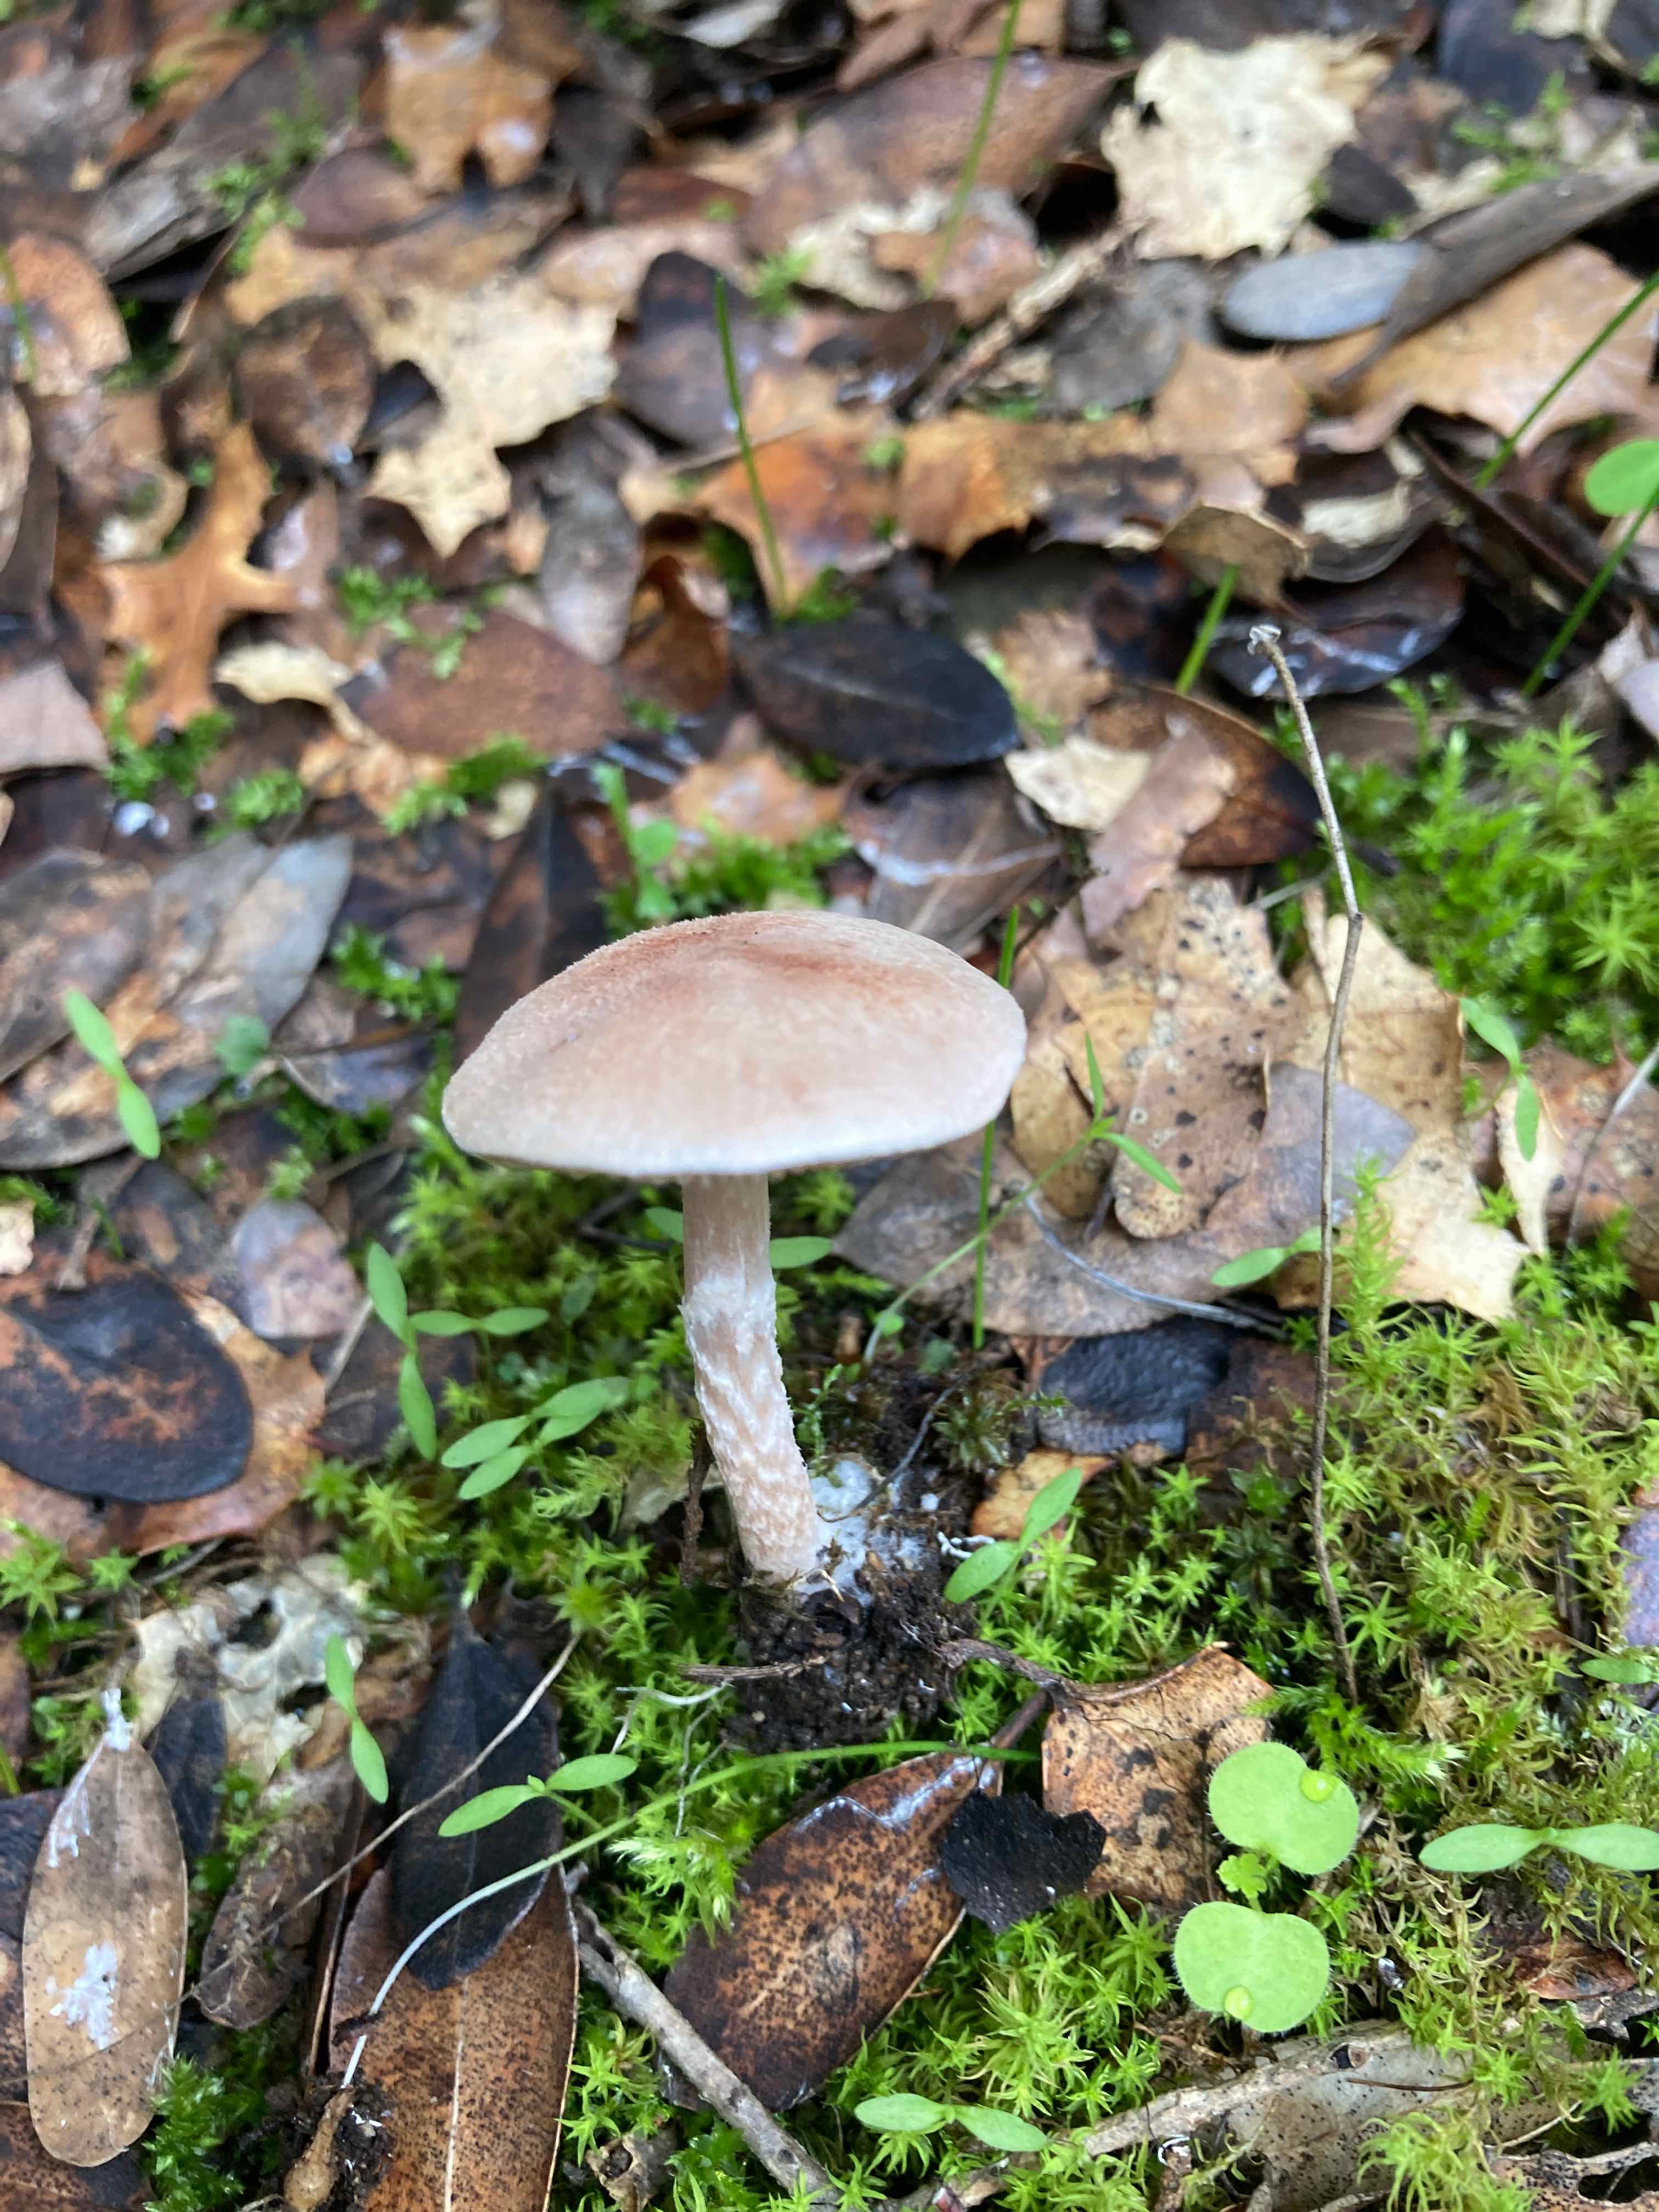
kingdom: Fungi
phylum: Basidiomycota
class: Agaricomycetes
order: Agaricales
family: Agaricaceae
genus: Lepiota
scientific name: Lepiota subincarnata
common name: kødfarvet parasolhat
